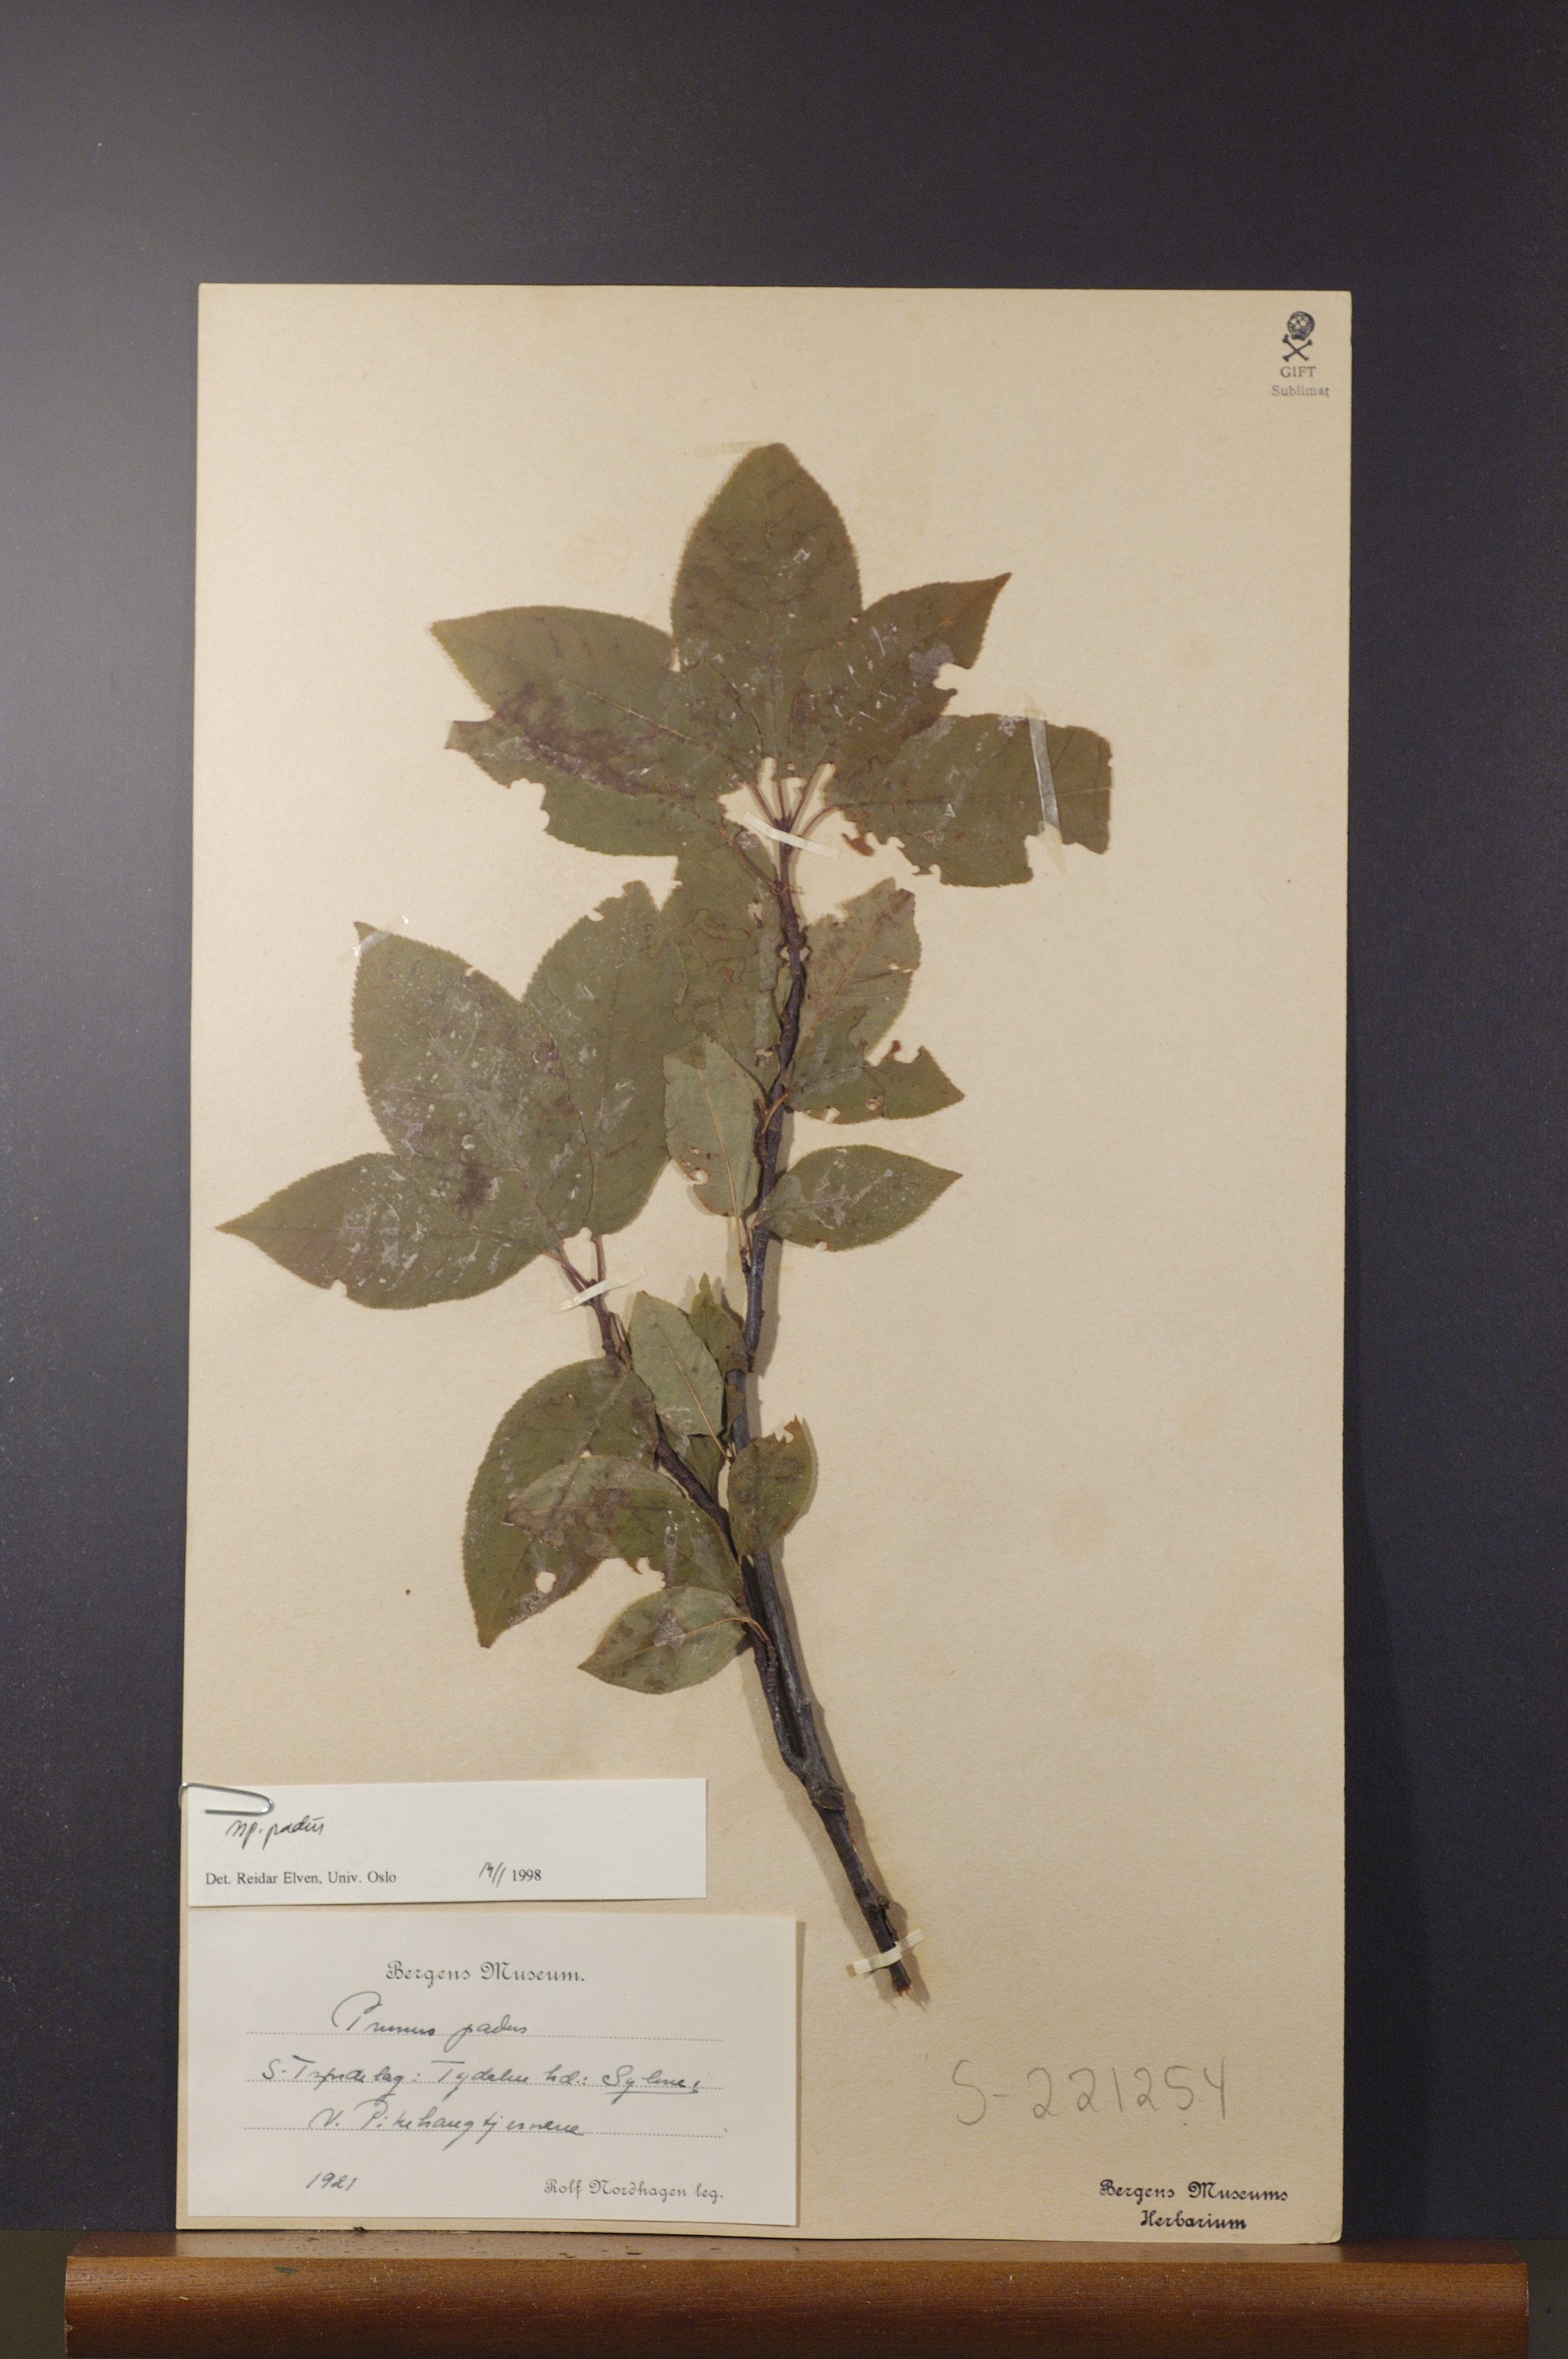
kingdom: Plantae
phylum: Tracheophyta
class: Magnoliopsida
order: Rosales
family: Rosaceae
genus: Prunus
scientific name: Prunus padus
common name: Bird cherry
